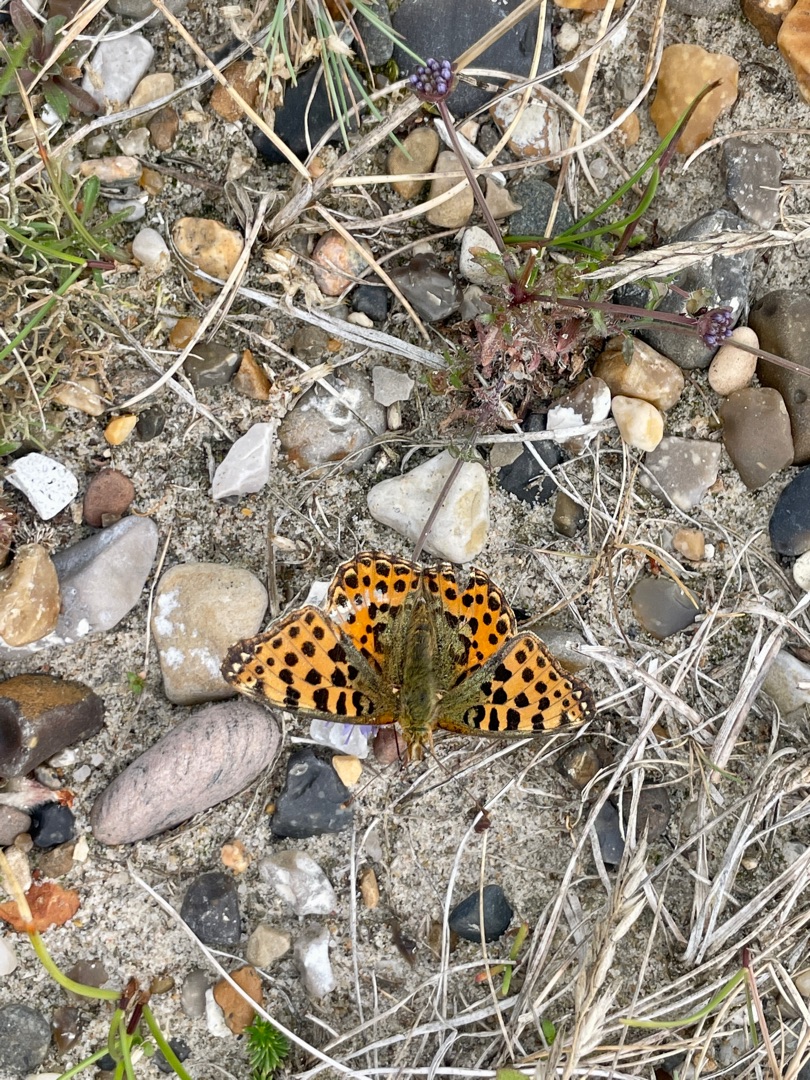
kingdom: Animalia
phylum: Arthropoda
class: Insecta
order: Lepidoptera
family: Nymphalidae
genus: Issoria
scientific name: Issoria lathonia
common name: Storplettet perlemorsommerfugl
